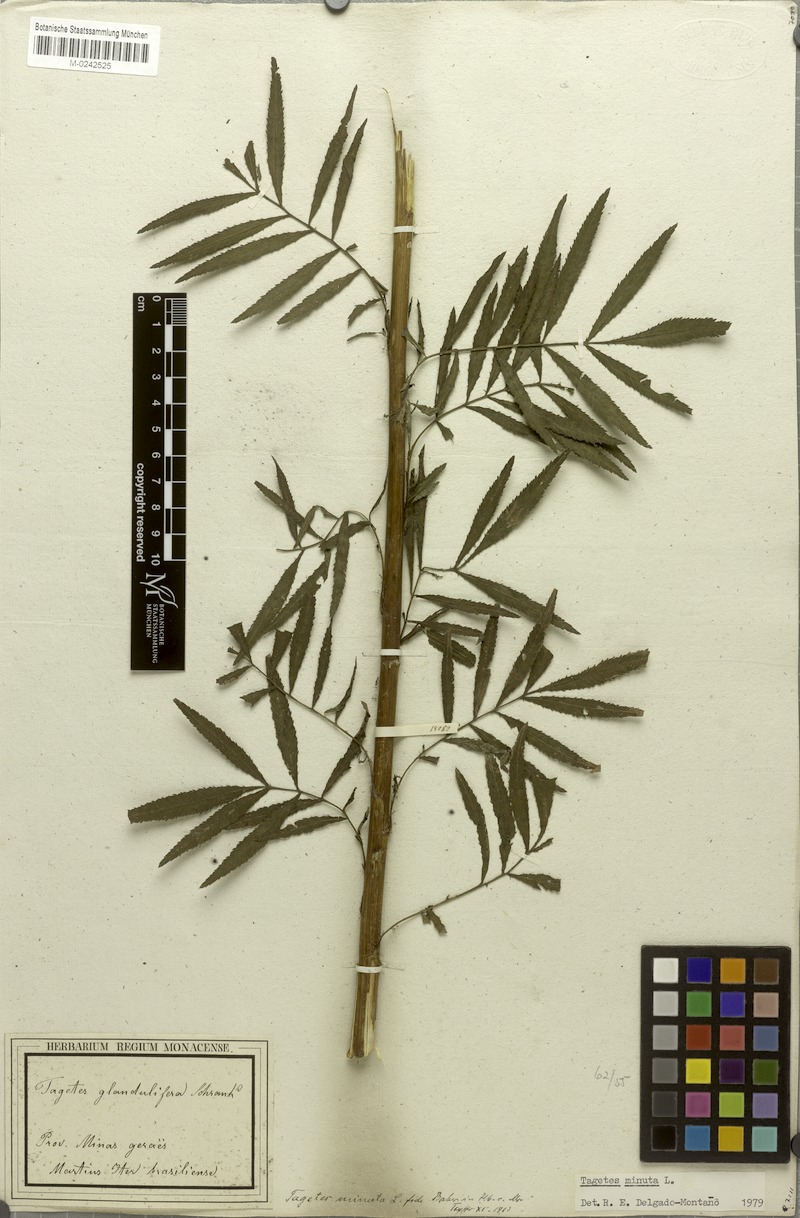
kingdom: Plantae
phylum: Tracheophyta
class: Magnoliopsida
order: Asterales
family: Asteraceae
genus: Tagetes
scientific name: Tagetes minuta
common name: Muster john henry
